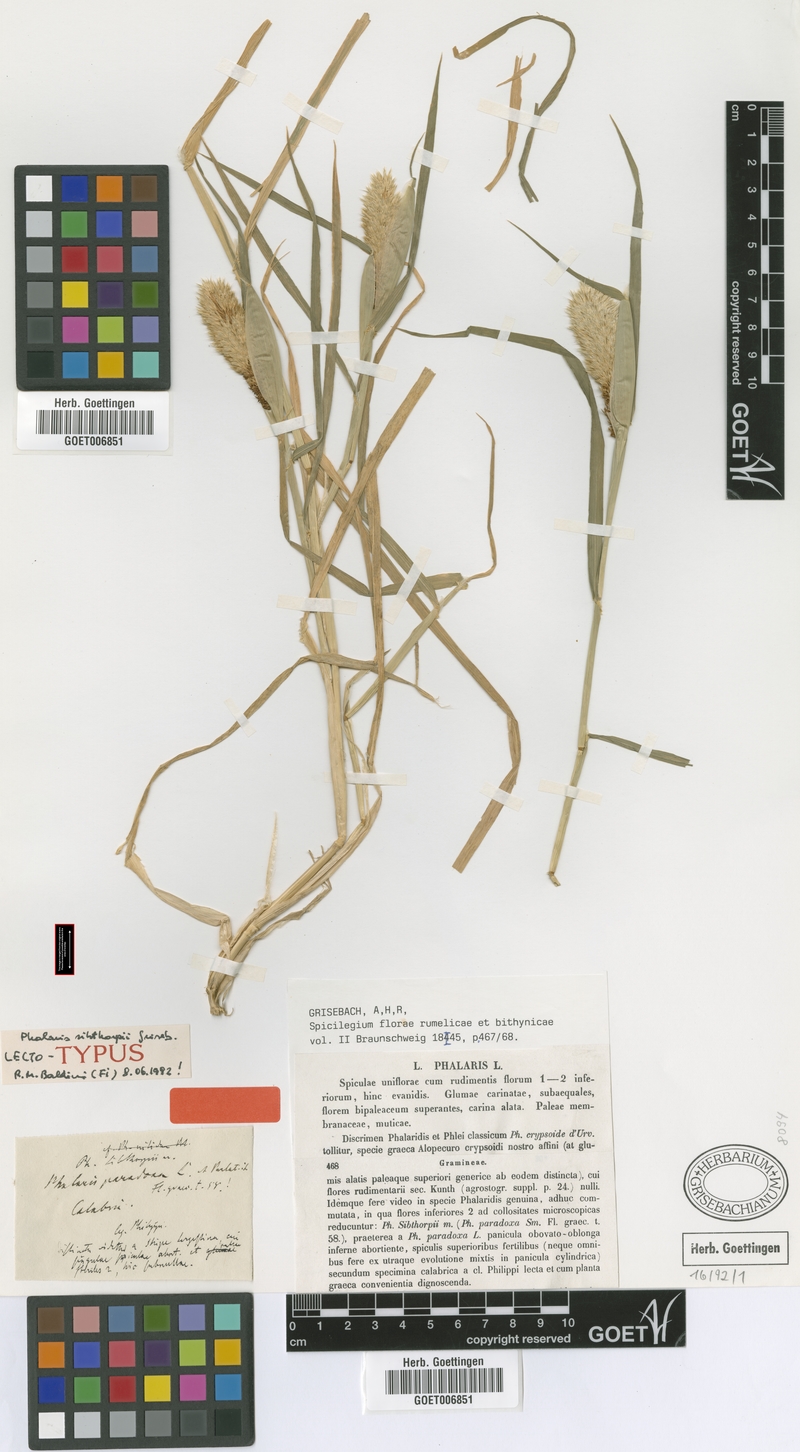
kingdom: Plantae
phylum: Tracheophyta
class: Liliopsida
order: Poales
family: Poaceae
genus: Phalaris
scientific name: Phalaris paradoxa
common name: Awned canary-grass
